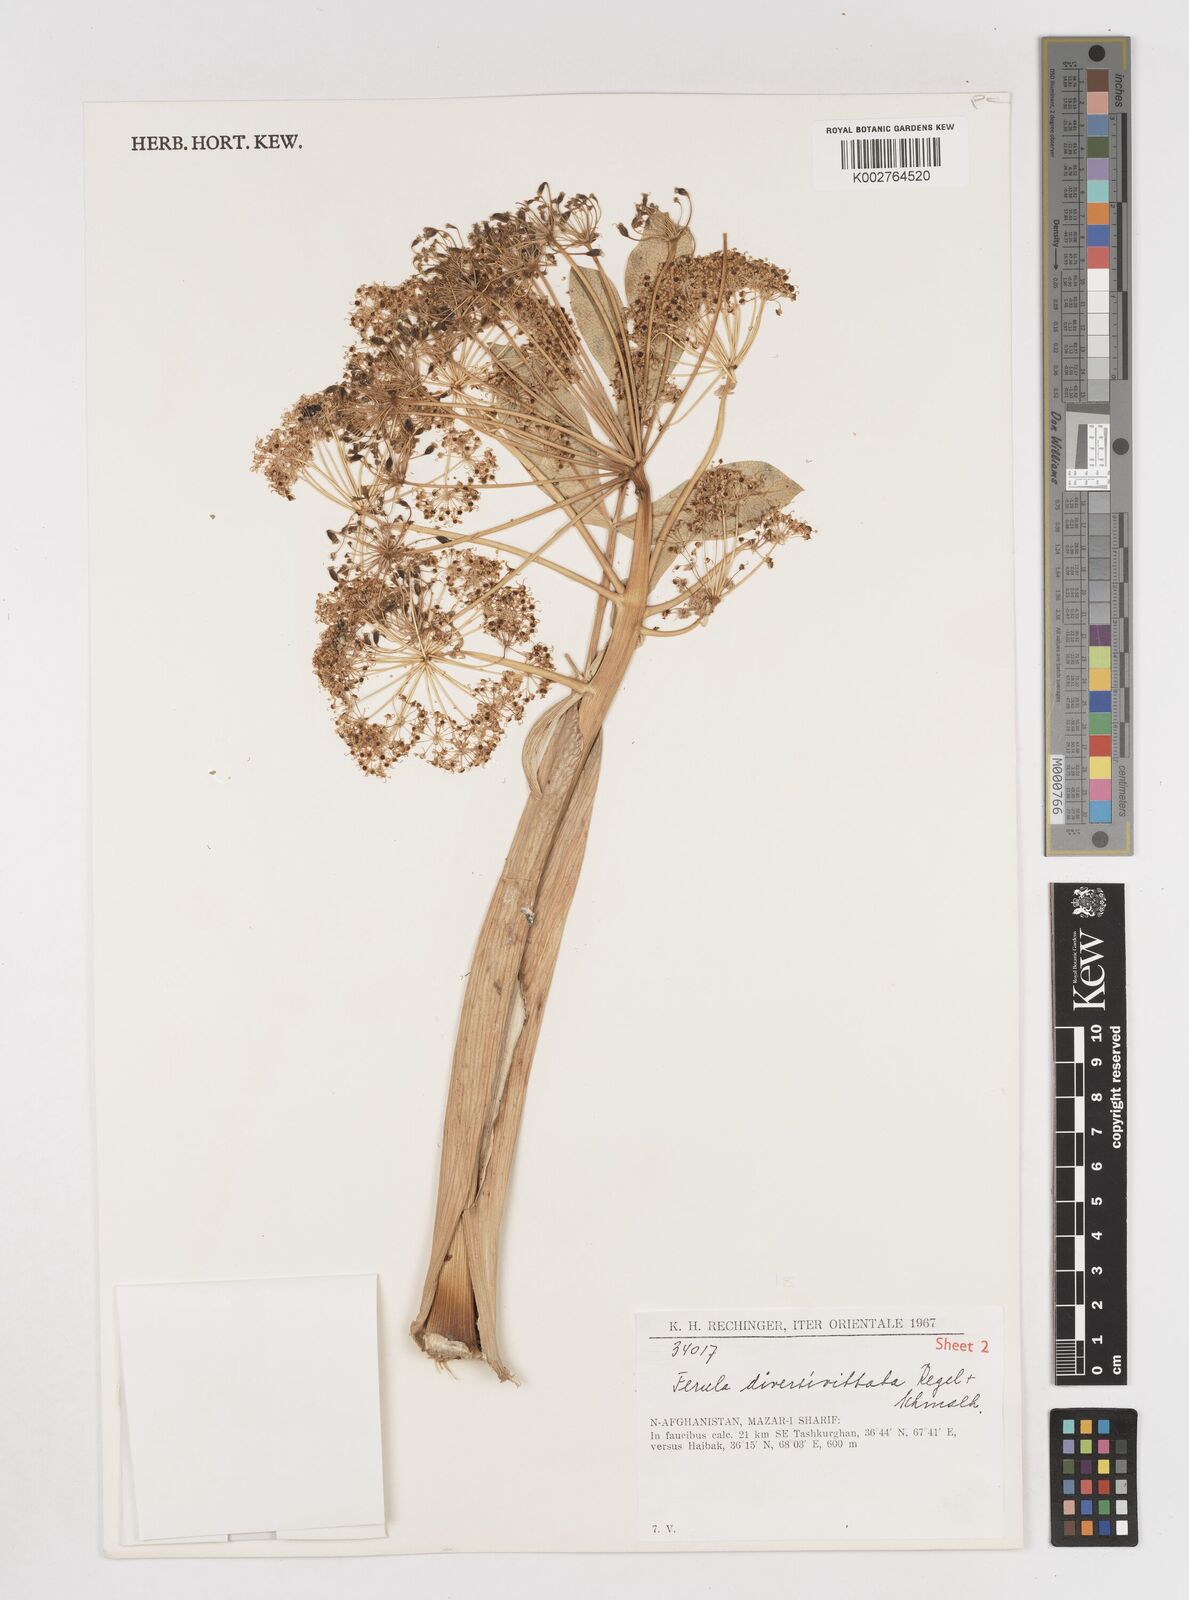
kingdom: Plantae
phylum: Tracheophyta
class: Magnoliopsida
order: Apiales
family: Apiaceae
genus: Ferula
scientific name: Ferula diversivittata
